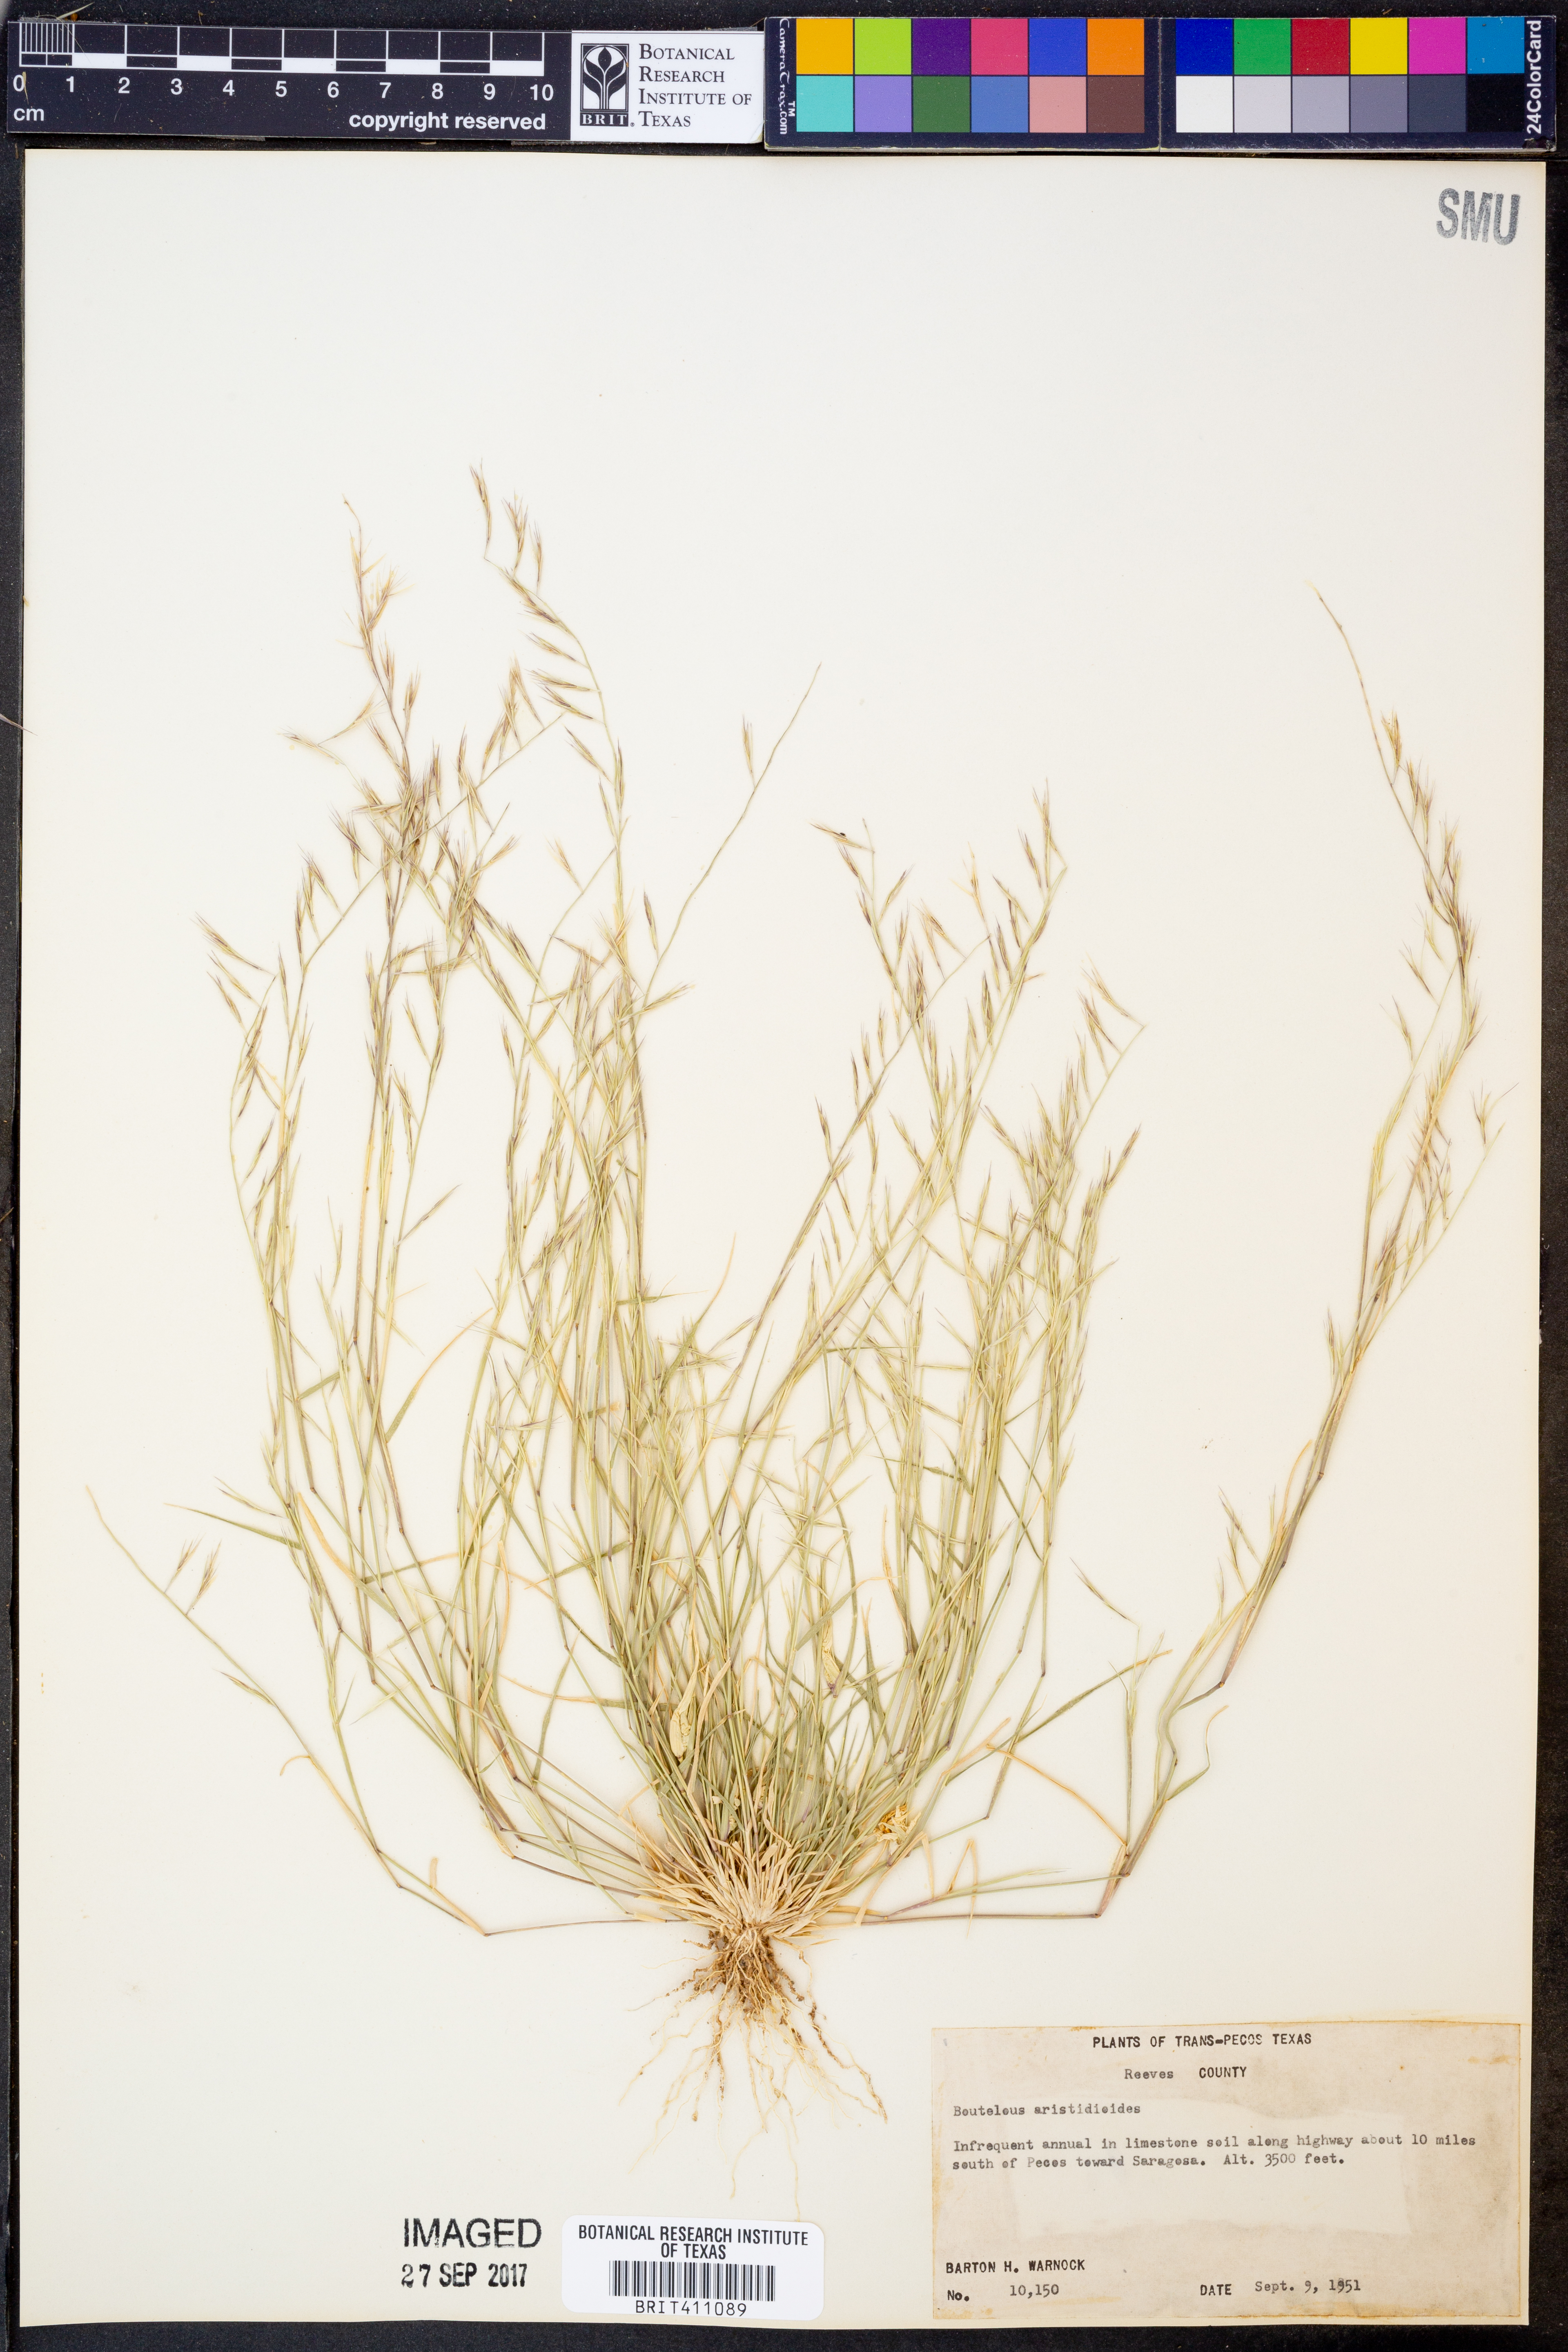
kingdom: Plantae
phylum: Tracheophyta
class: Liliopsida
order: Poales
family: Poaceae
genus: Bouteloua
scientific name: Bouteloua aristidoides
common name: Needle grama
